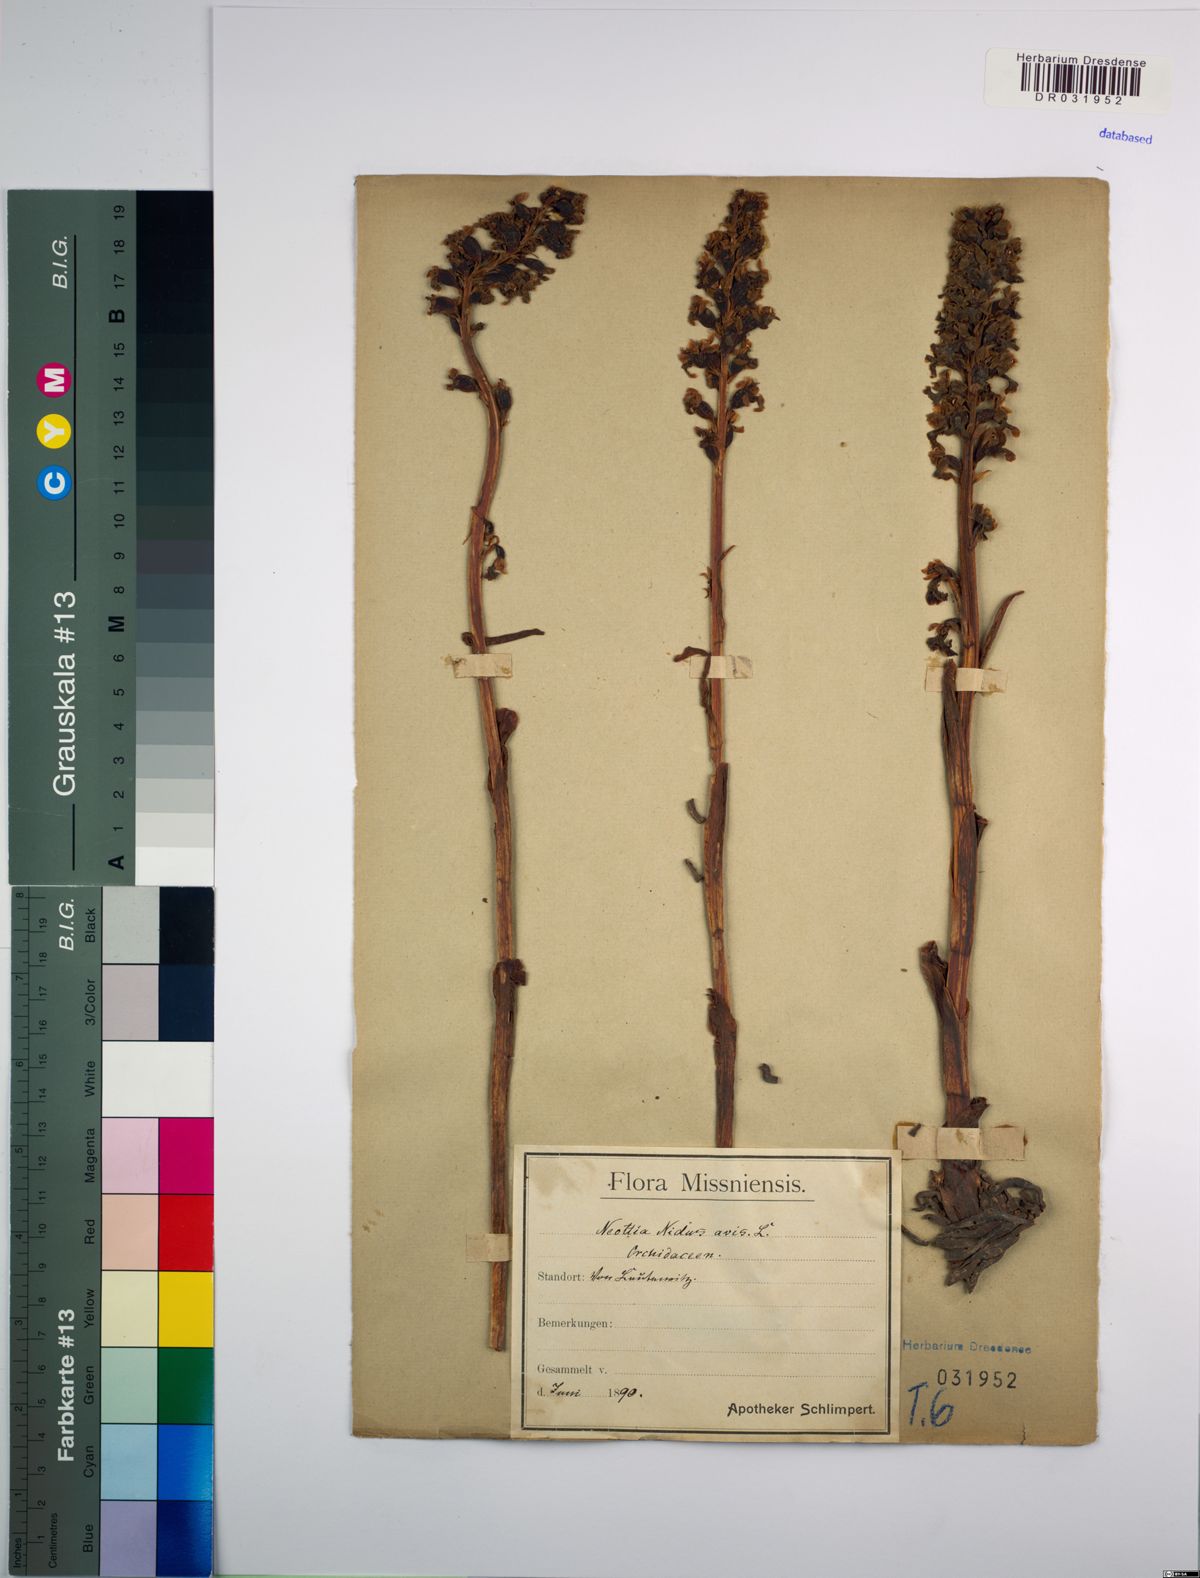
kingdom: Plantae
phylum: Tracheophyta
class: Liliopsida
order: Asparagales
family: Orchidaceae
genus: Neottia
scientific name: Neottia nidus-avis
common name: Bird's-nest orchid
